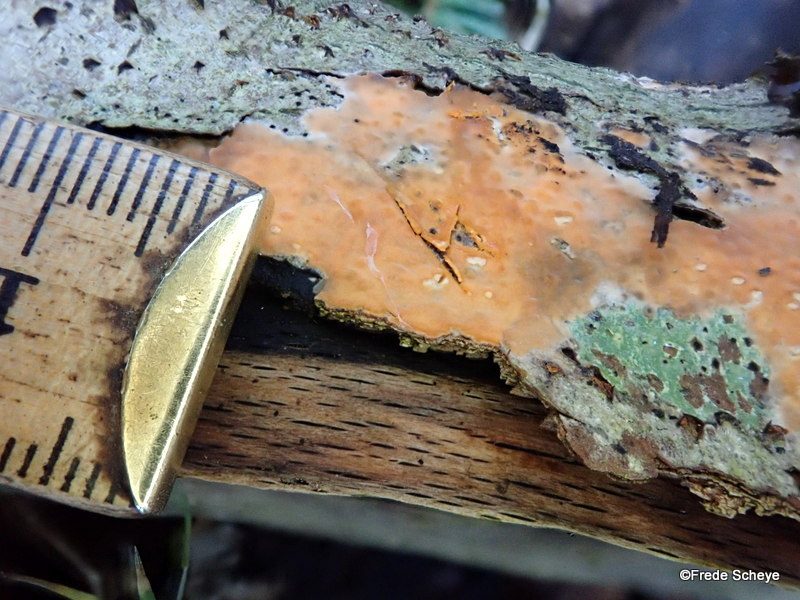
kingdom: Fungi
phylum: Basidiomycota
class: Agaricomycetes
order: Russulales
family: Peniophoraceae
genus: Peniophora
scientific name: Peniophora incarnata
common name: laksefarvet voksskind
